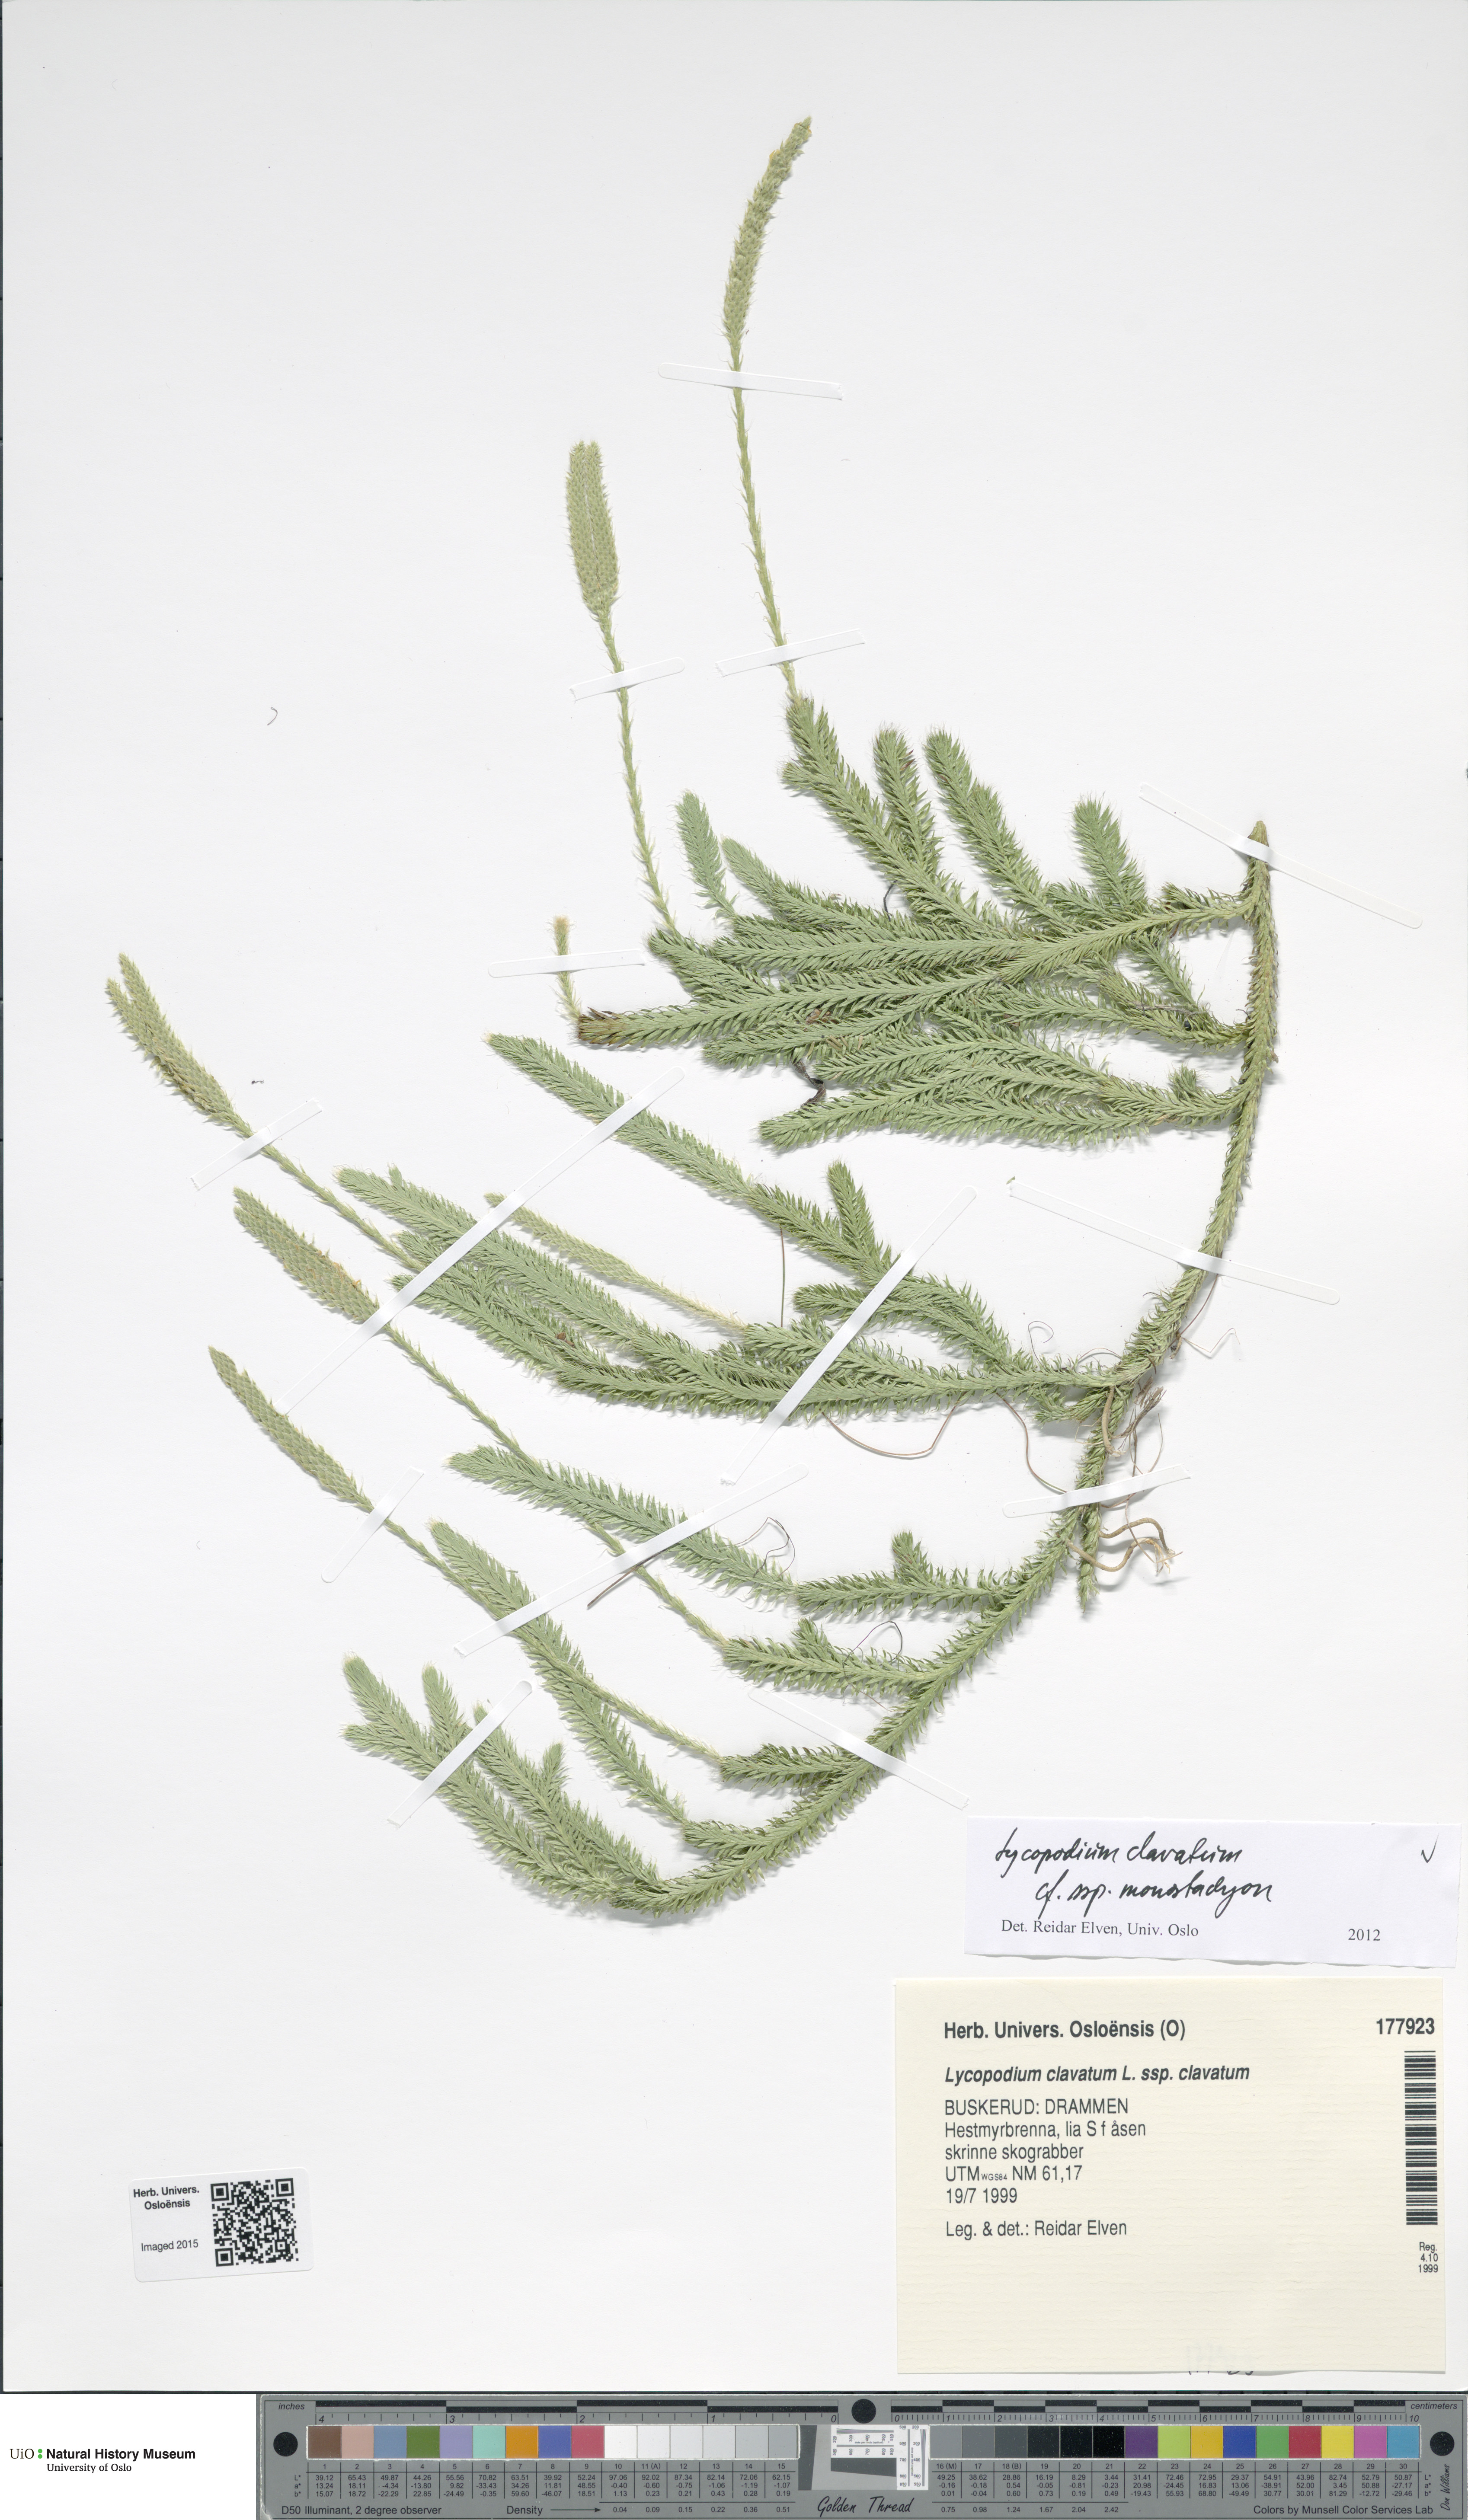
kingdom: Plantae
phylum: Tracheophyta
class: Lycopodiopsida
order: Lycopodiales
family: Lycopodiaceae
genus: Lycopodium
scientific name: Lycopodium lagopus
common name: One-cone clubmoss
